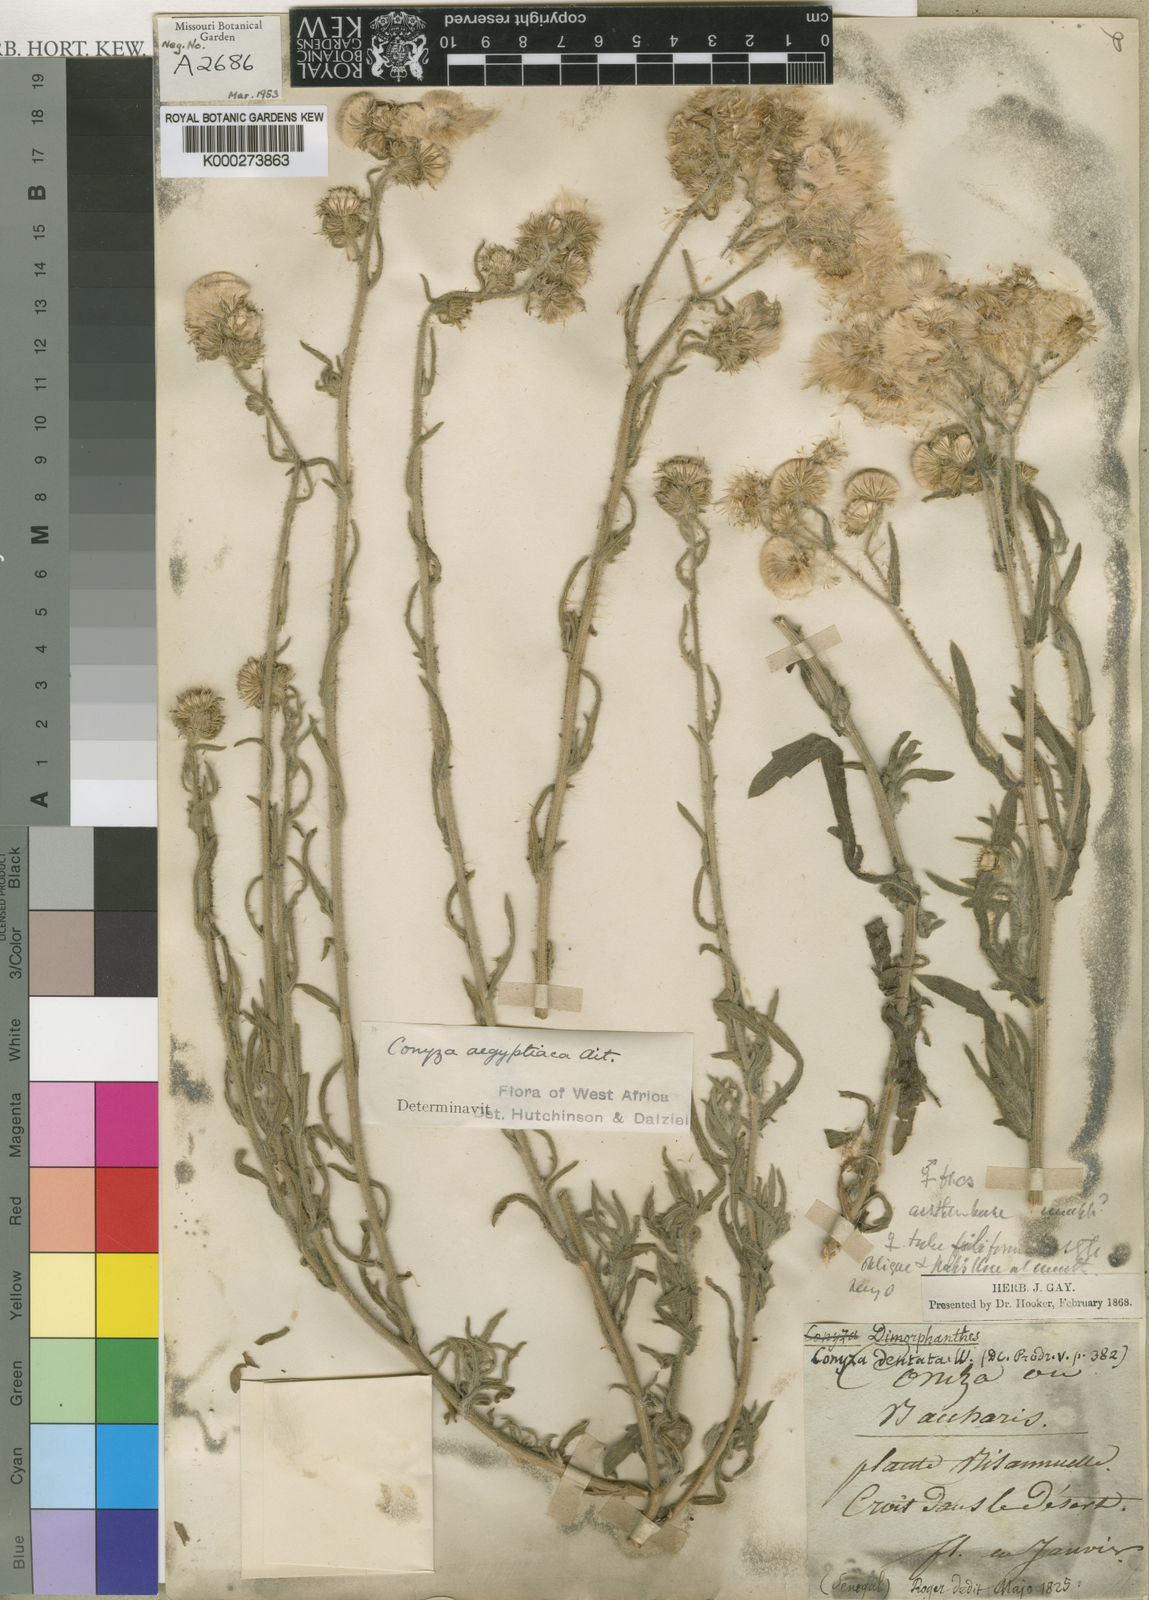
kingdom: Plantae
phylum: Tracheophyta
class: Magnoliopsida
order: Asterales
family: Asteraceae
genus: Nidorella
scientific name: Nidorella aegyptiaca
